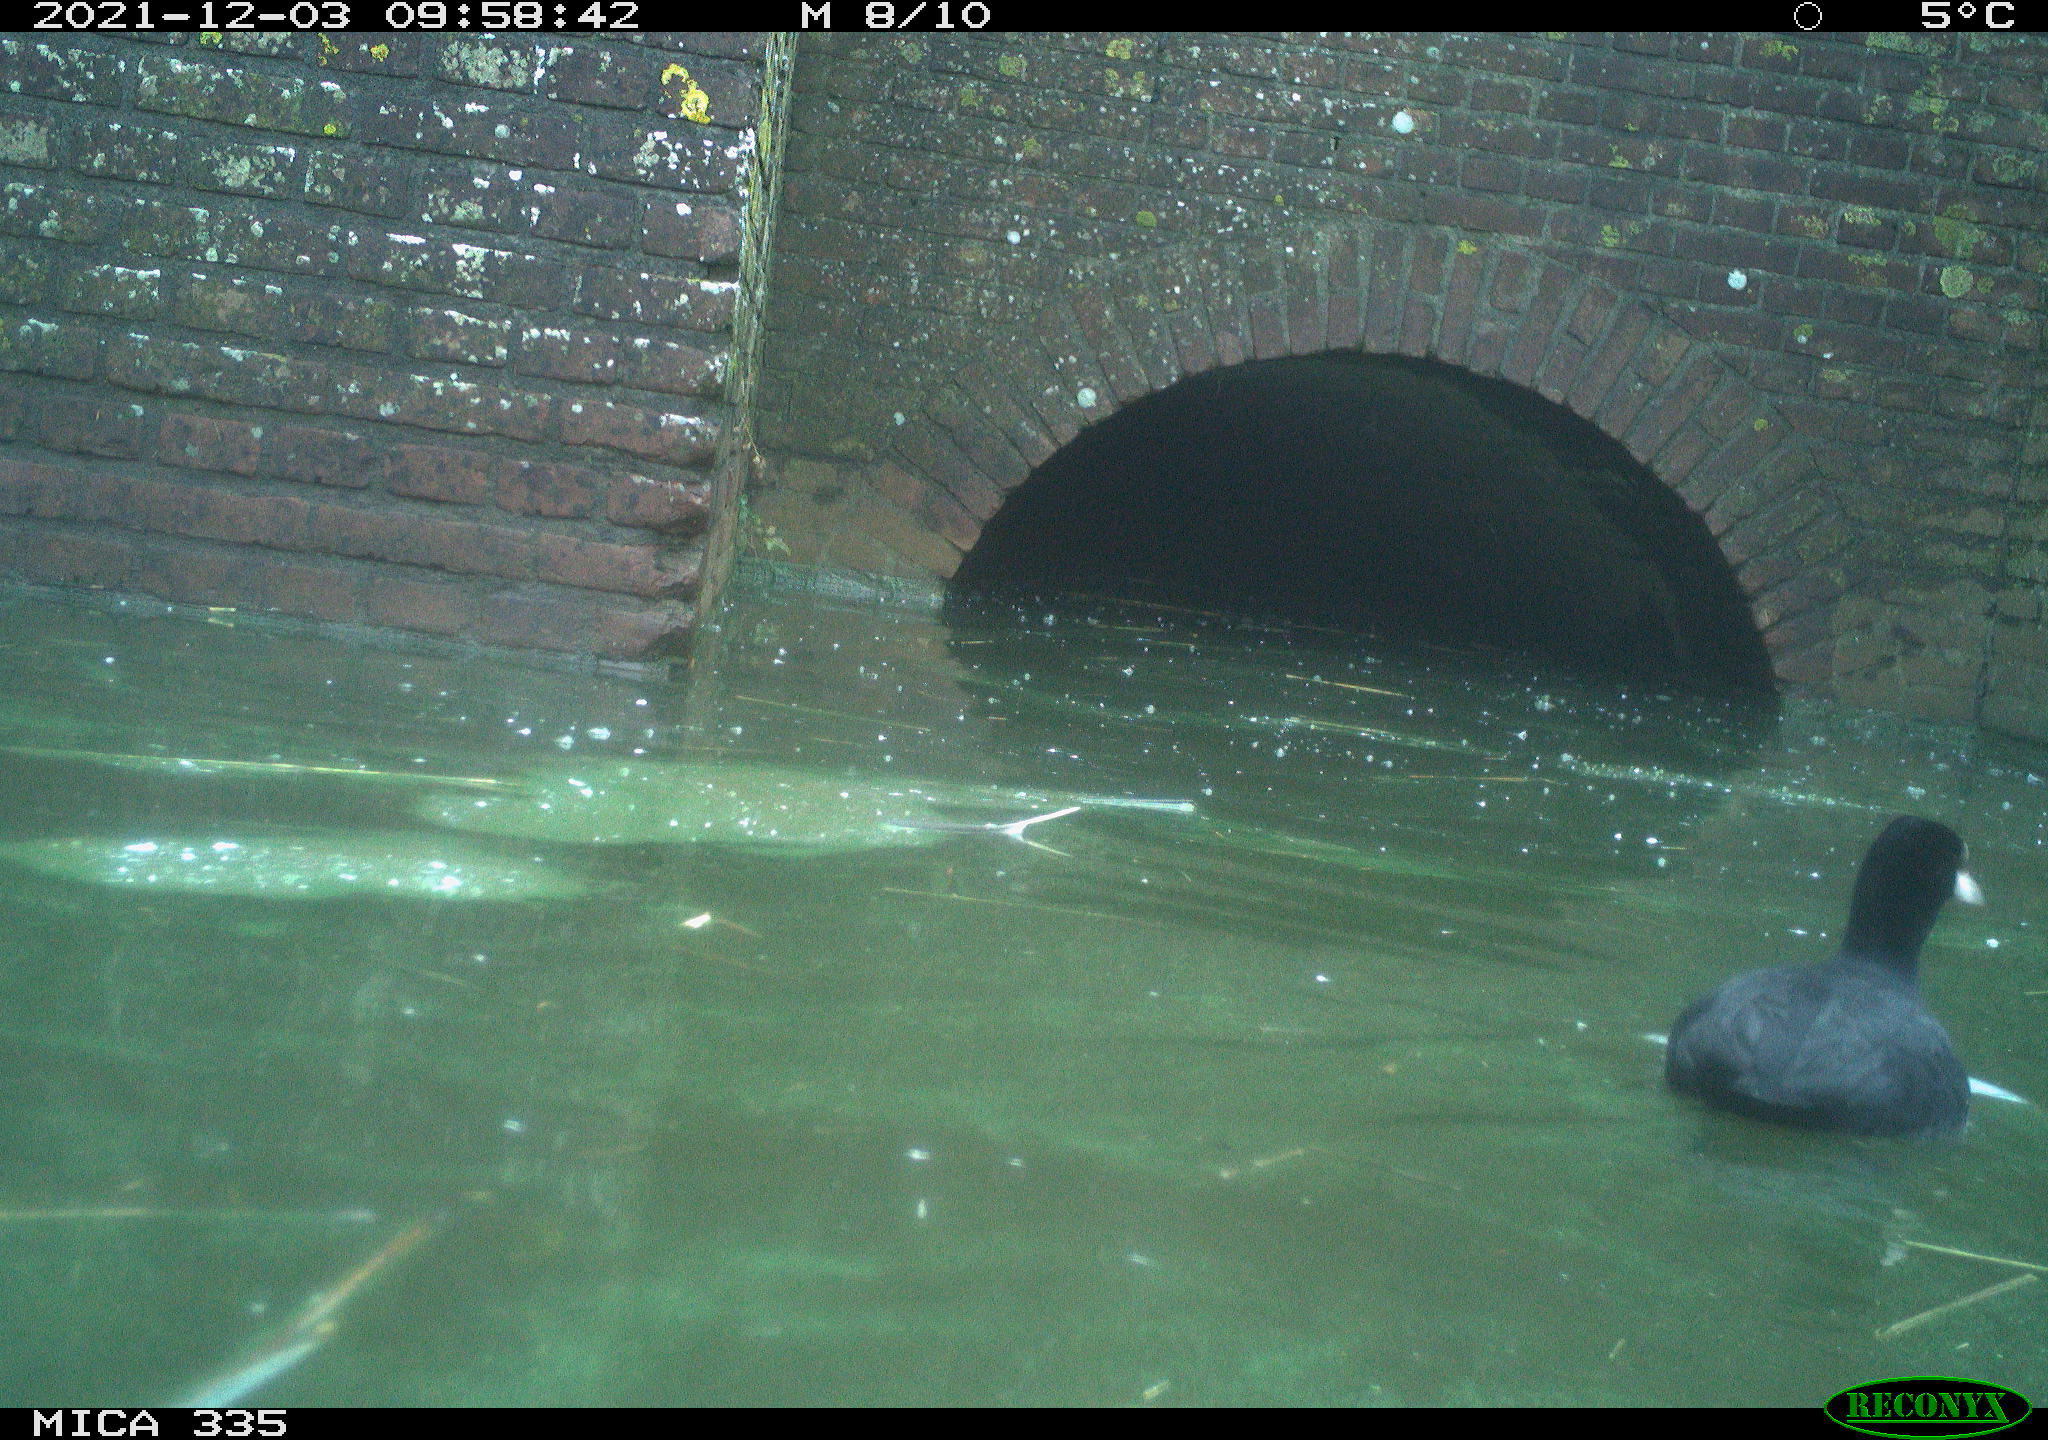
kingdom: Animalia
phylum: Chordata
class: Aves
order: Anseriformes
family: Anatidae
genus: Anas
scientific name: Anas platyrhynchos
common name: Mallard
